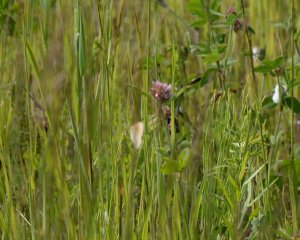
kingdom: Animalia
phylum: Arthropoda
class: Insecta
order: Lepidoptera
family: Nymphalidae
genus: Coenonympha
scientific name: Coenonympha tullia
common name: Large Heath
